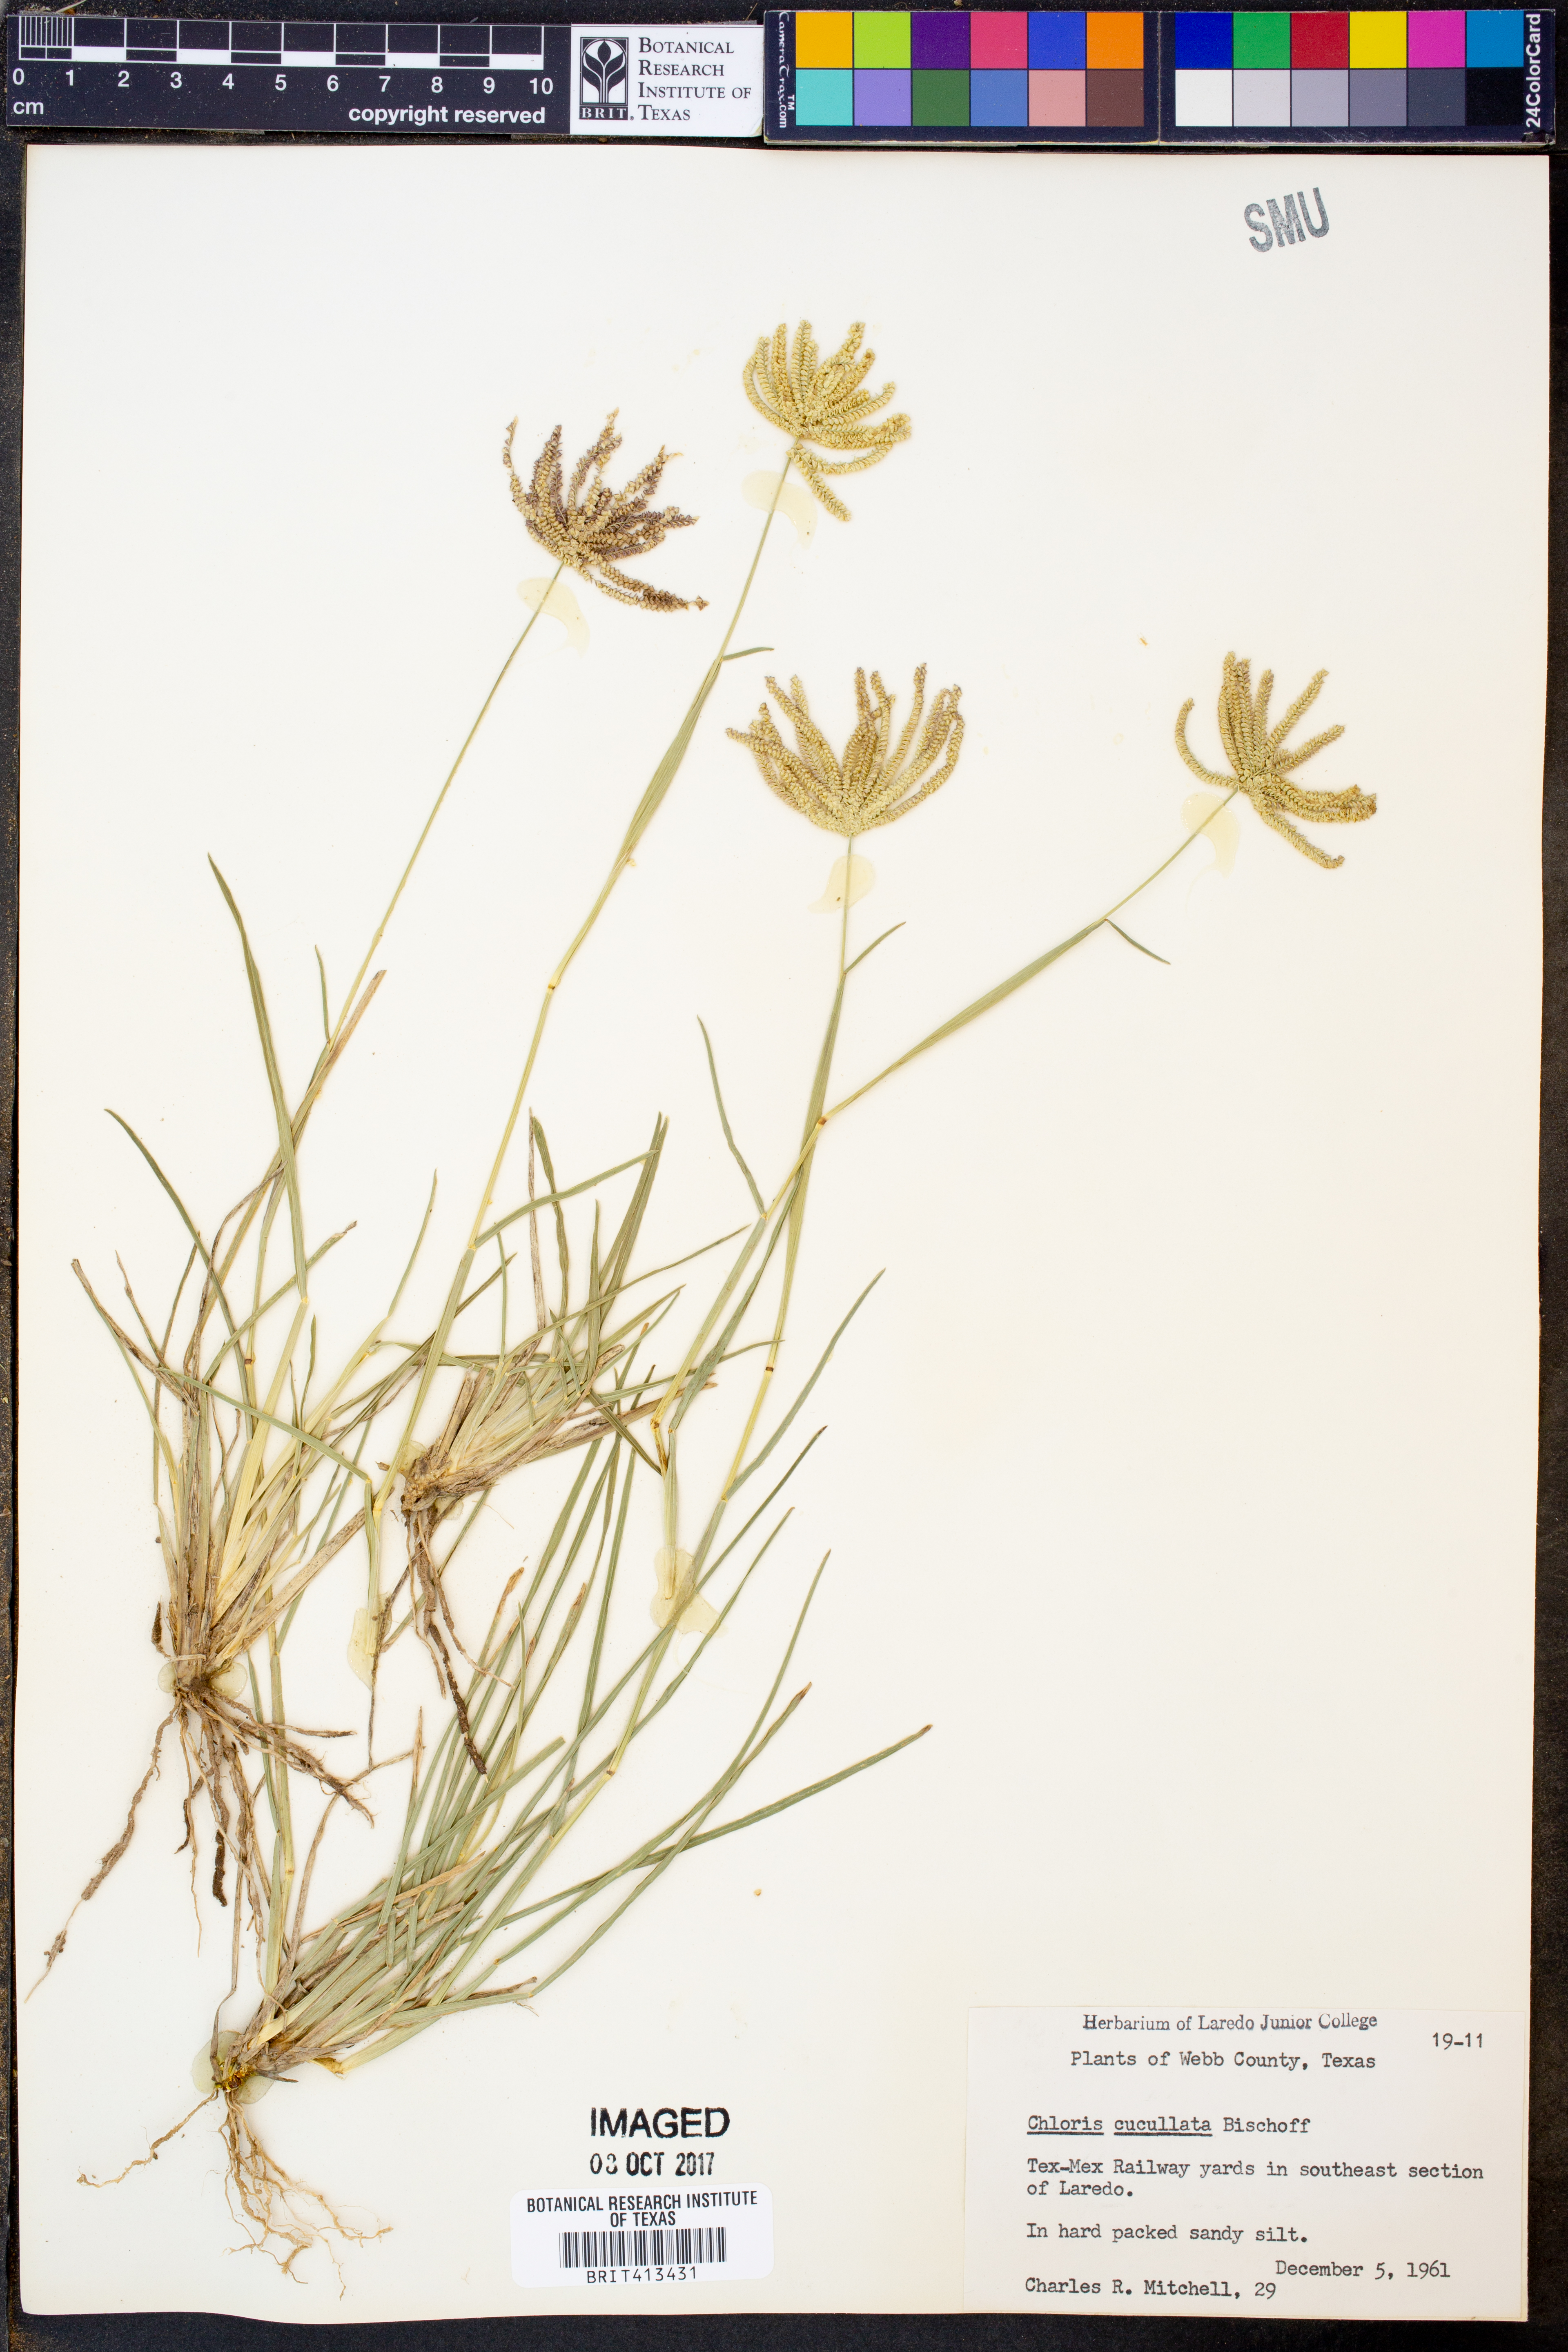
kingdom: Plantae
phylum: Tracheophyta
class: Liliopsida
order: Poales
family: Poaceae
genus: Chloris
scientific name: Chloris cucullata
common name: Hooded windmill grass
